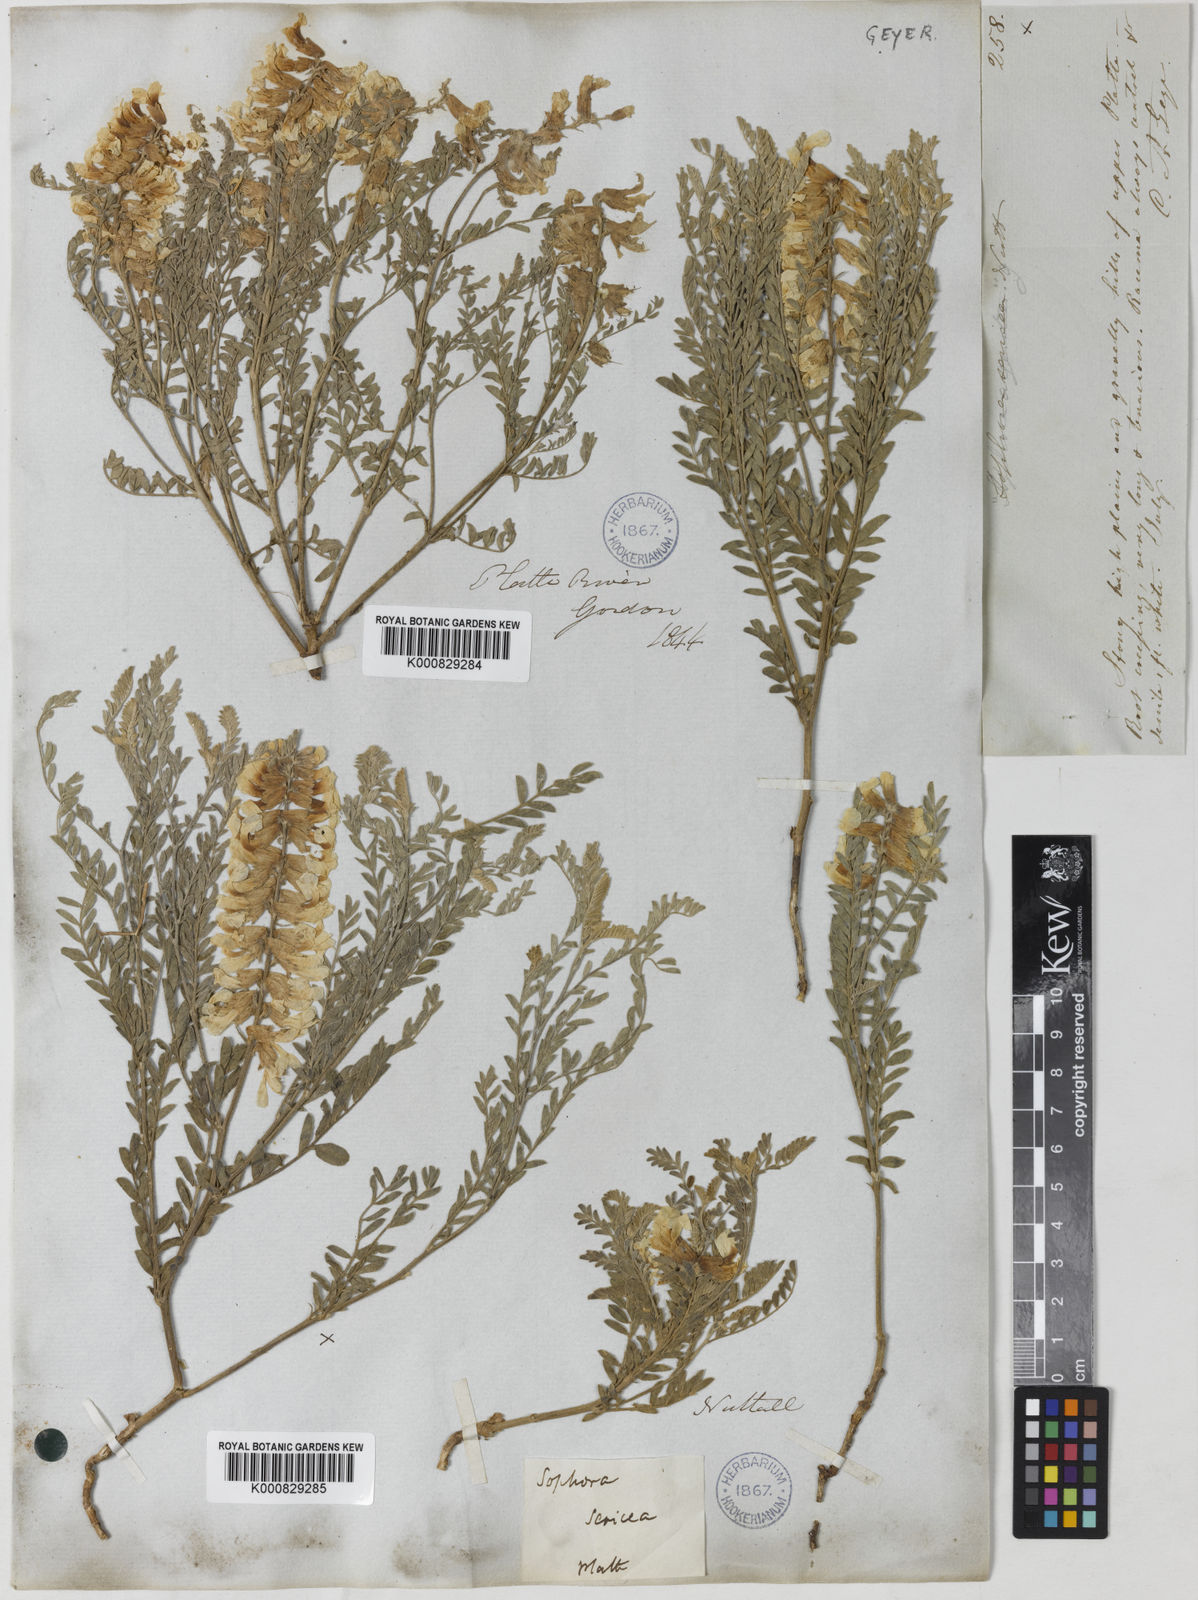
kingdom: Plantae
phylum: Tracheophyta
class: Magnoliopsida
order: Fabales
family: Fabaceae
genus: Sophora
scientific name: Sophora nuttalliana
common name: Silky sophora
